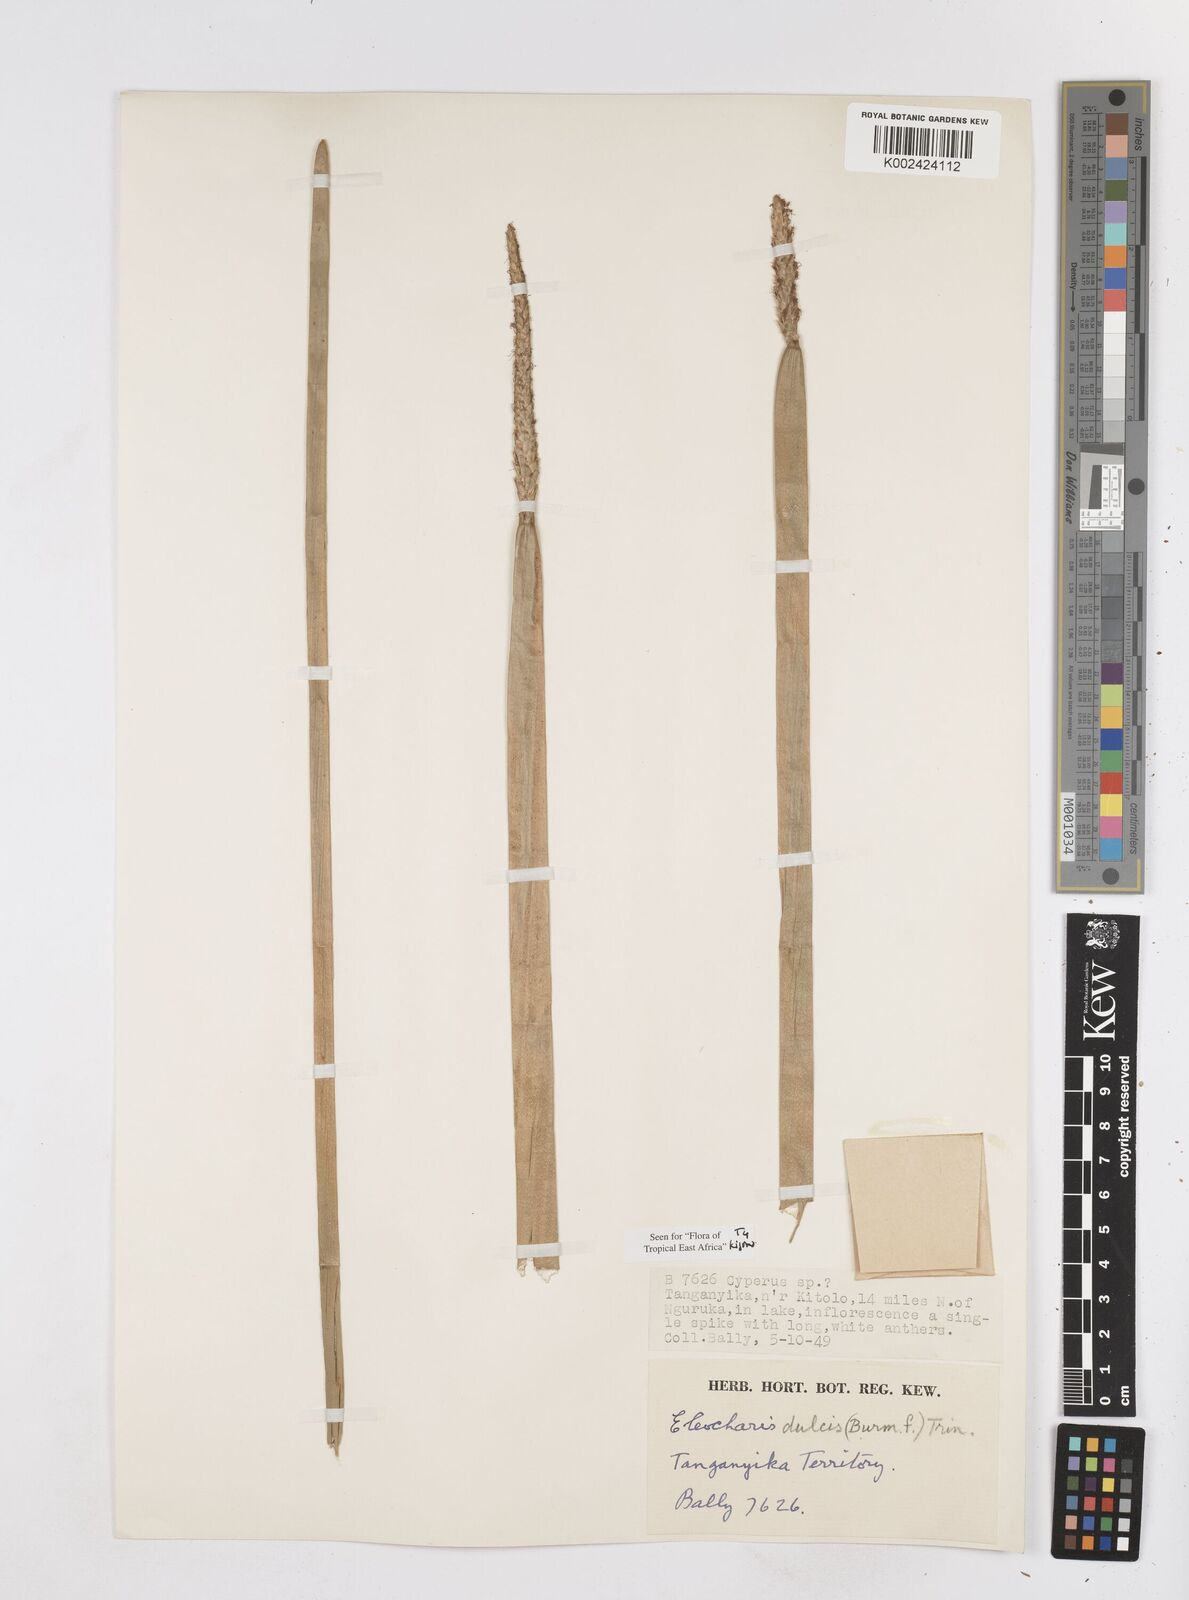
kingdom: Plantae
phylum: Tracheophyta
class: Liliopsida
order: Poales
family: Cyperaceae
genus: Eleocharis
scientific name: Eleocharis dulcis
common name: Chinese water chestnut
